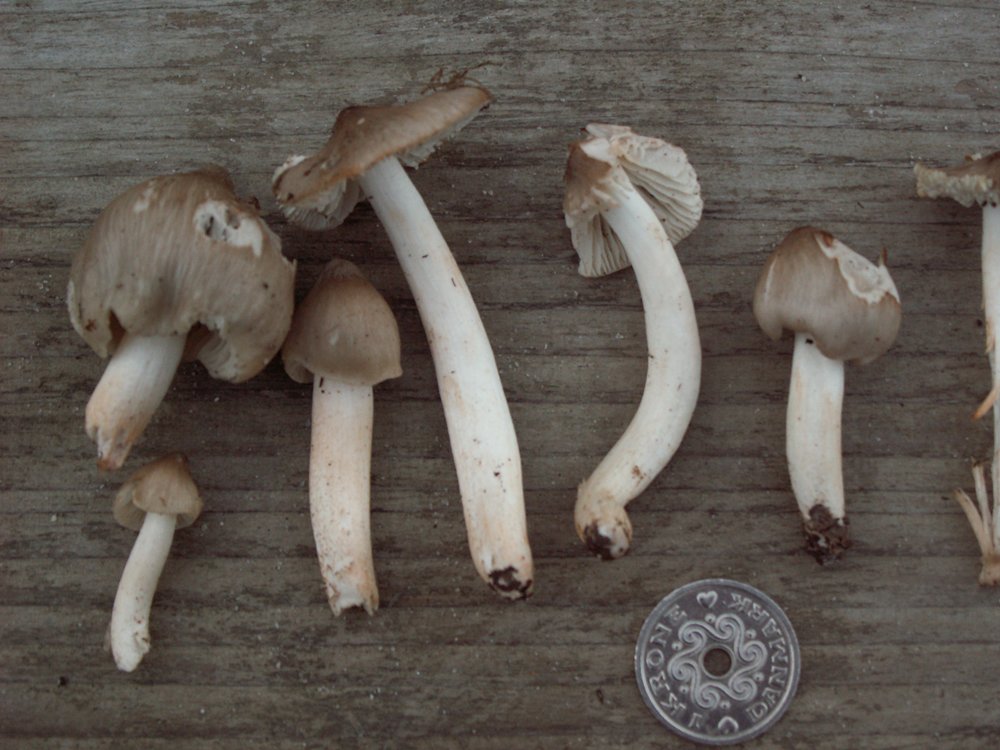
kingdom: Fungi
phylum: Basidiomycota
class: Agaricomycetes
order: Agaricales
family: Hygrophoraceae
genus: Cuphophyllus
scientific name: Cuphophyllus fornicatus
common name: gråbrun vokshat
